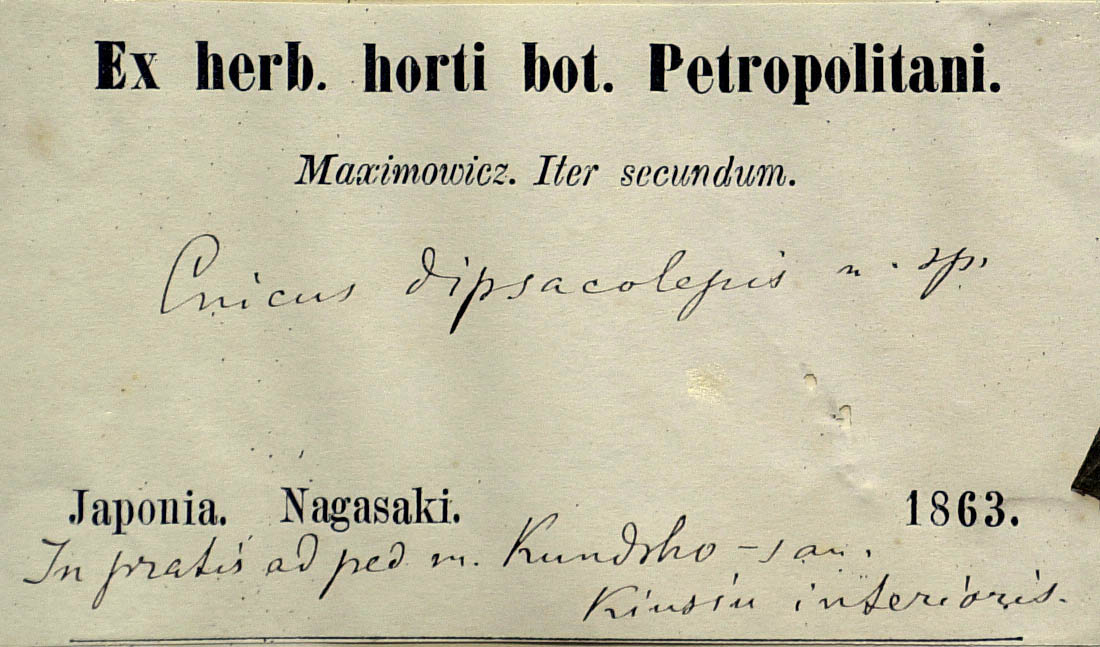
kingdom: Plantae
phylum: Tracheophyta
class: Magnoliopsida
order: Asterales
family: Asteraceae
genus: Cirsium
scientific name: Cirsium dipsacolepis
